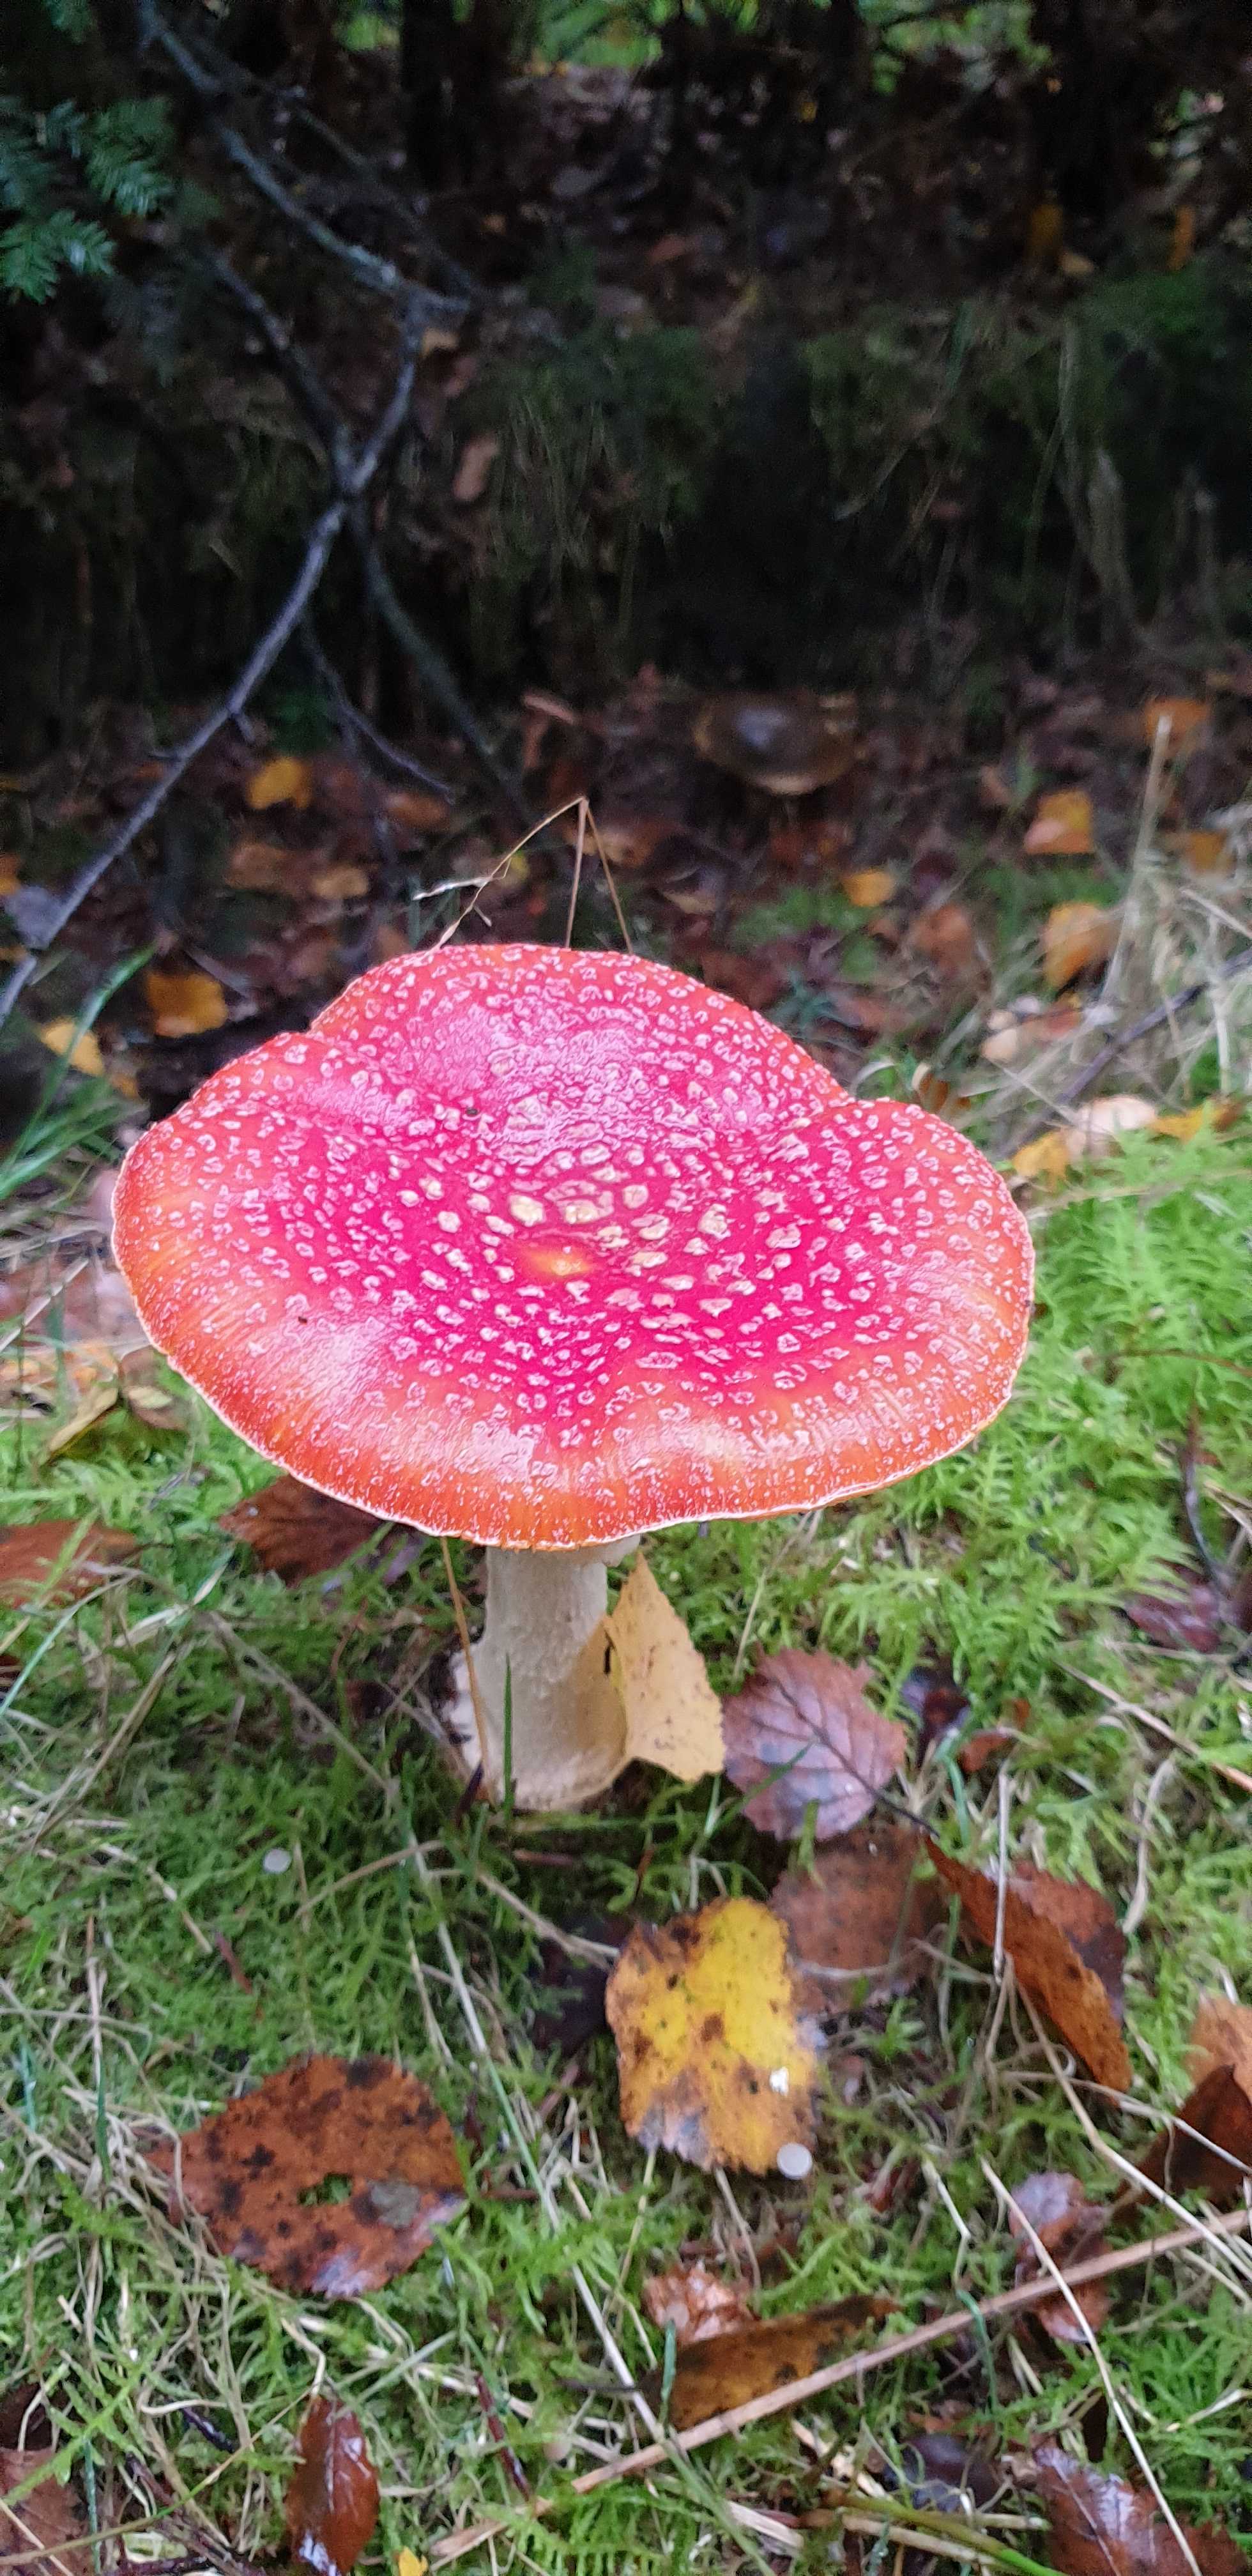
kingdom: Fungi
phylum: Basidiomycota
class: Agaricomycetes
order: Agaricales
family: Amanitaceae
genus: Amanita
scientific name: Amanita muscaria
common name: rød fluesvamp
